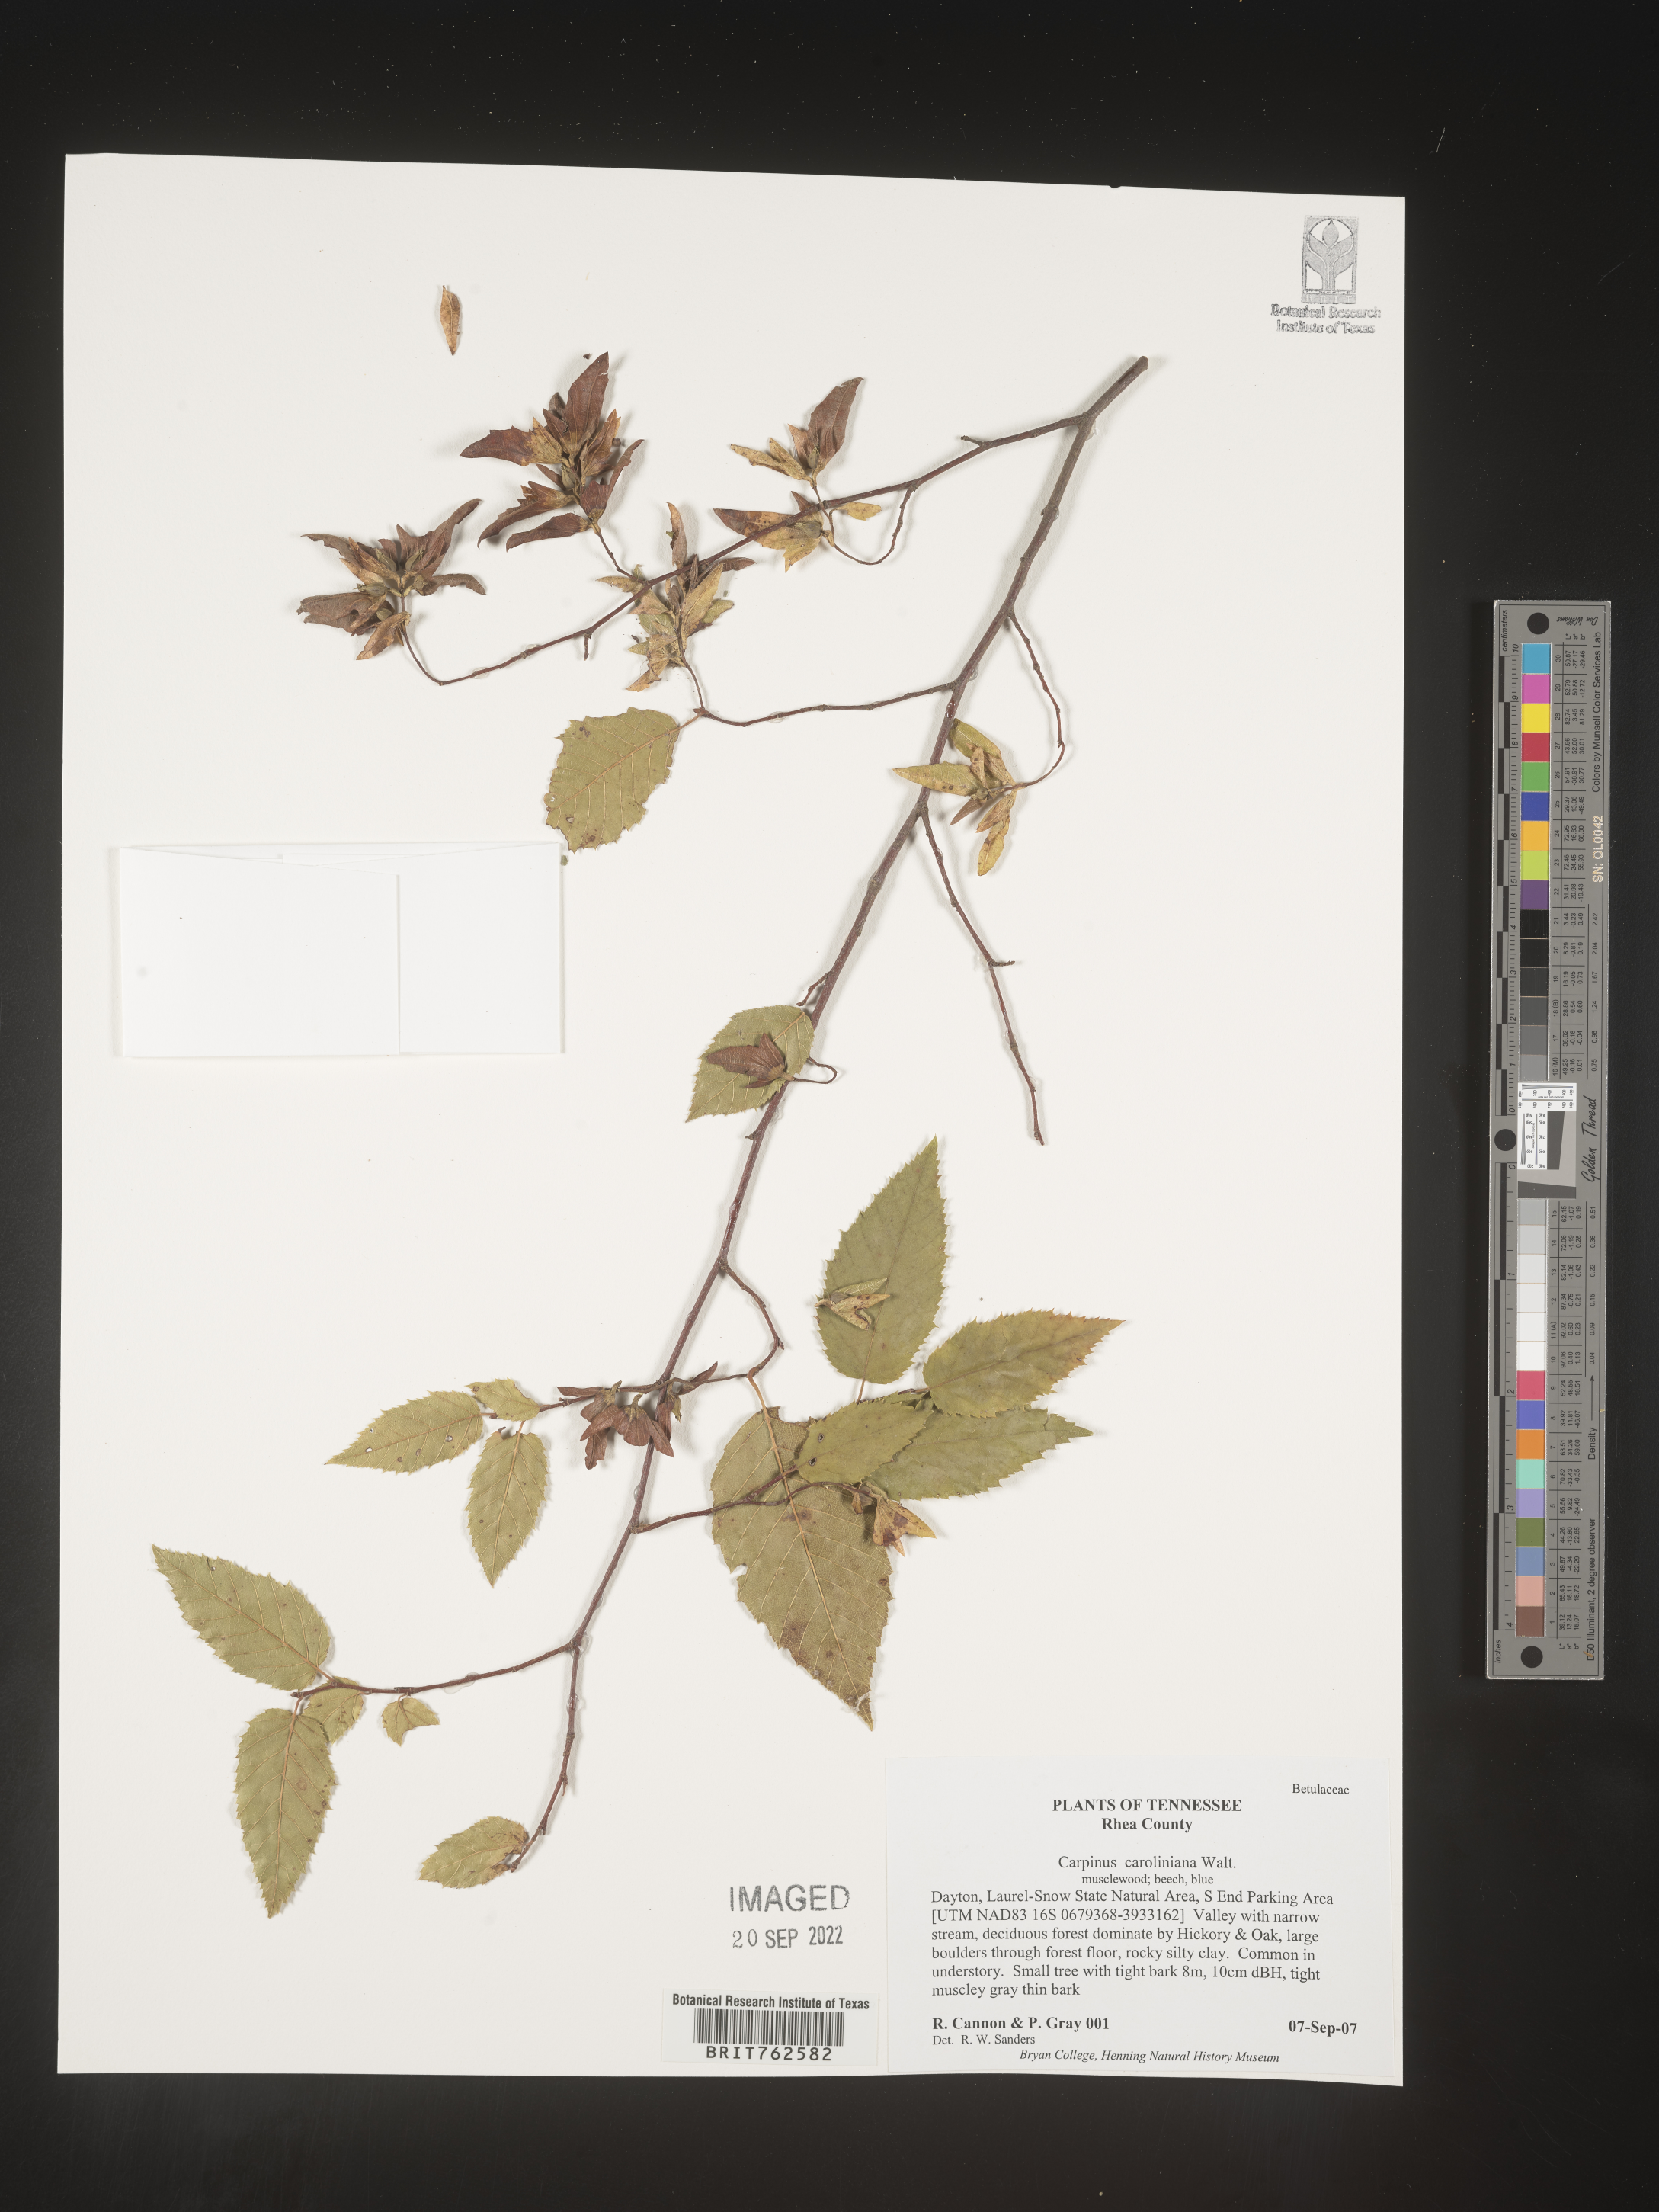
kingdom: Plantae
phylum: Tracheophyta
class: Magnoliopsida
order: Fagales
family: Betulaceae
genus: Carpinus
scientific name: Carpinus caroliniana
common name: American hornbeam
